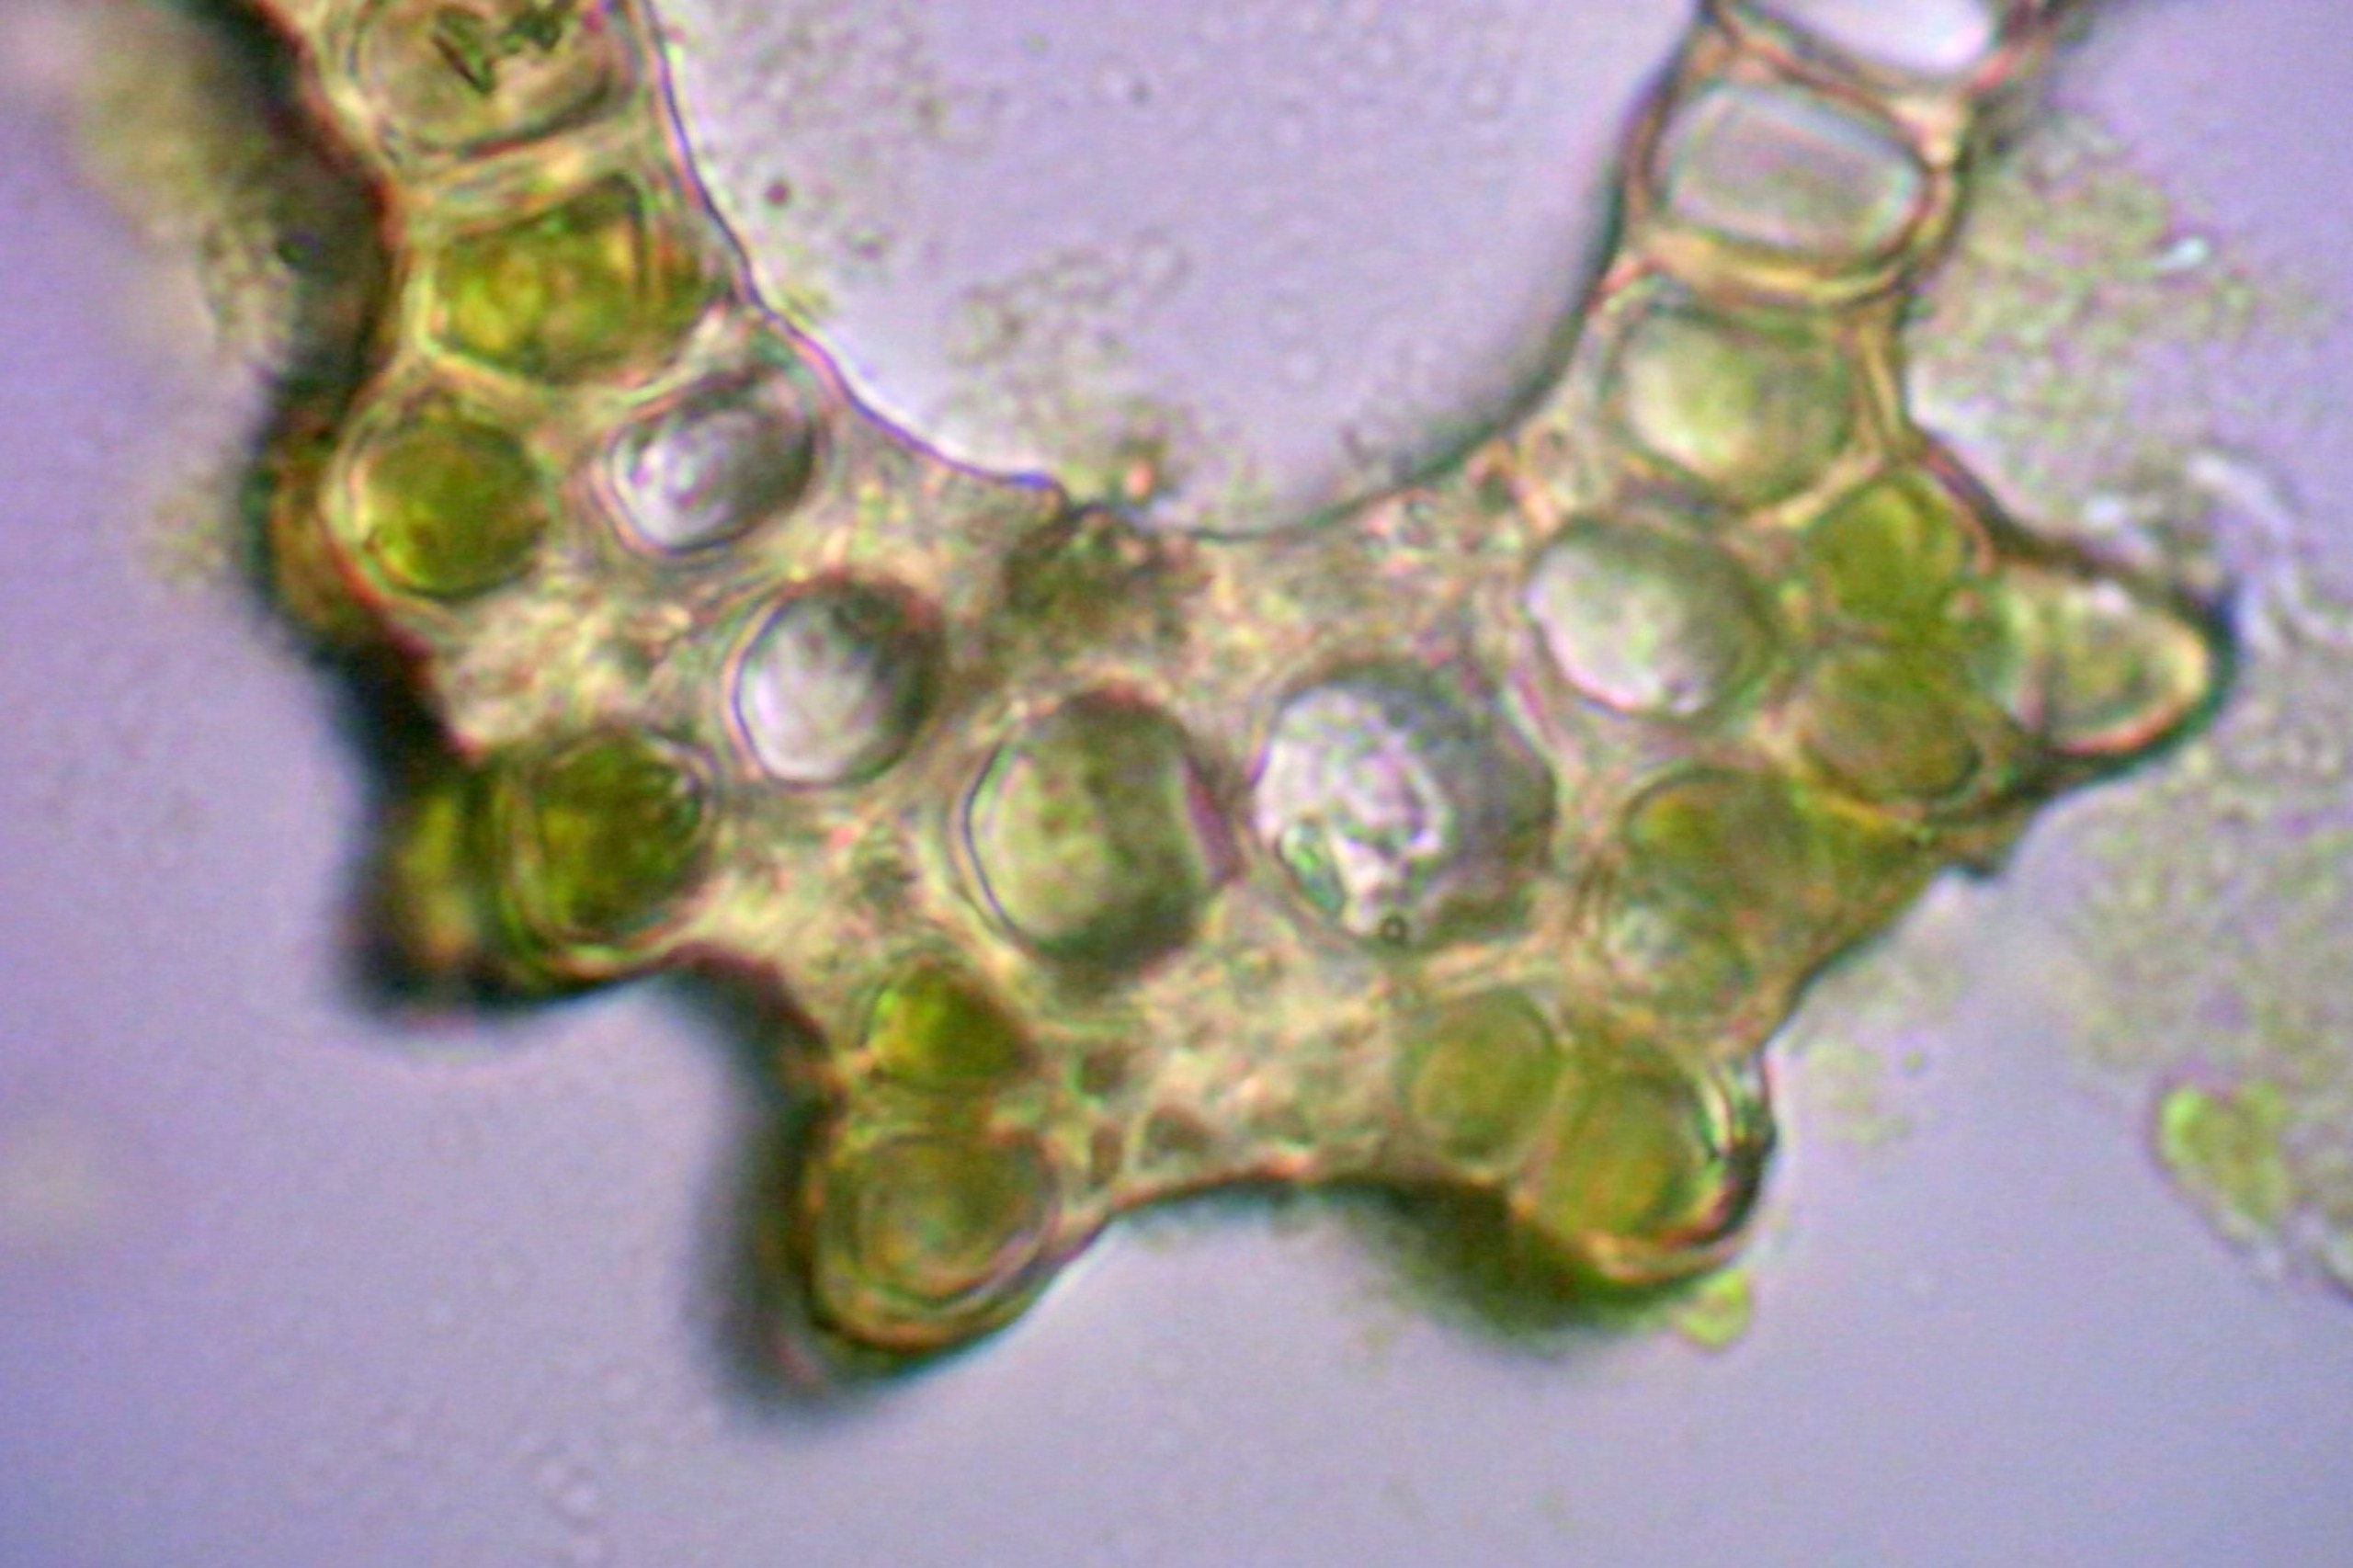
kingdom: Plantae
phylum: Bryophyta
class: Bryopsida
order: Dicranales
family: Dicranaceae
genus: Dicranum
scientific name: Dicranum scoparium
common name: Almindelig kløvtand
